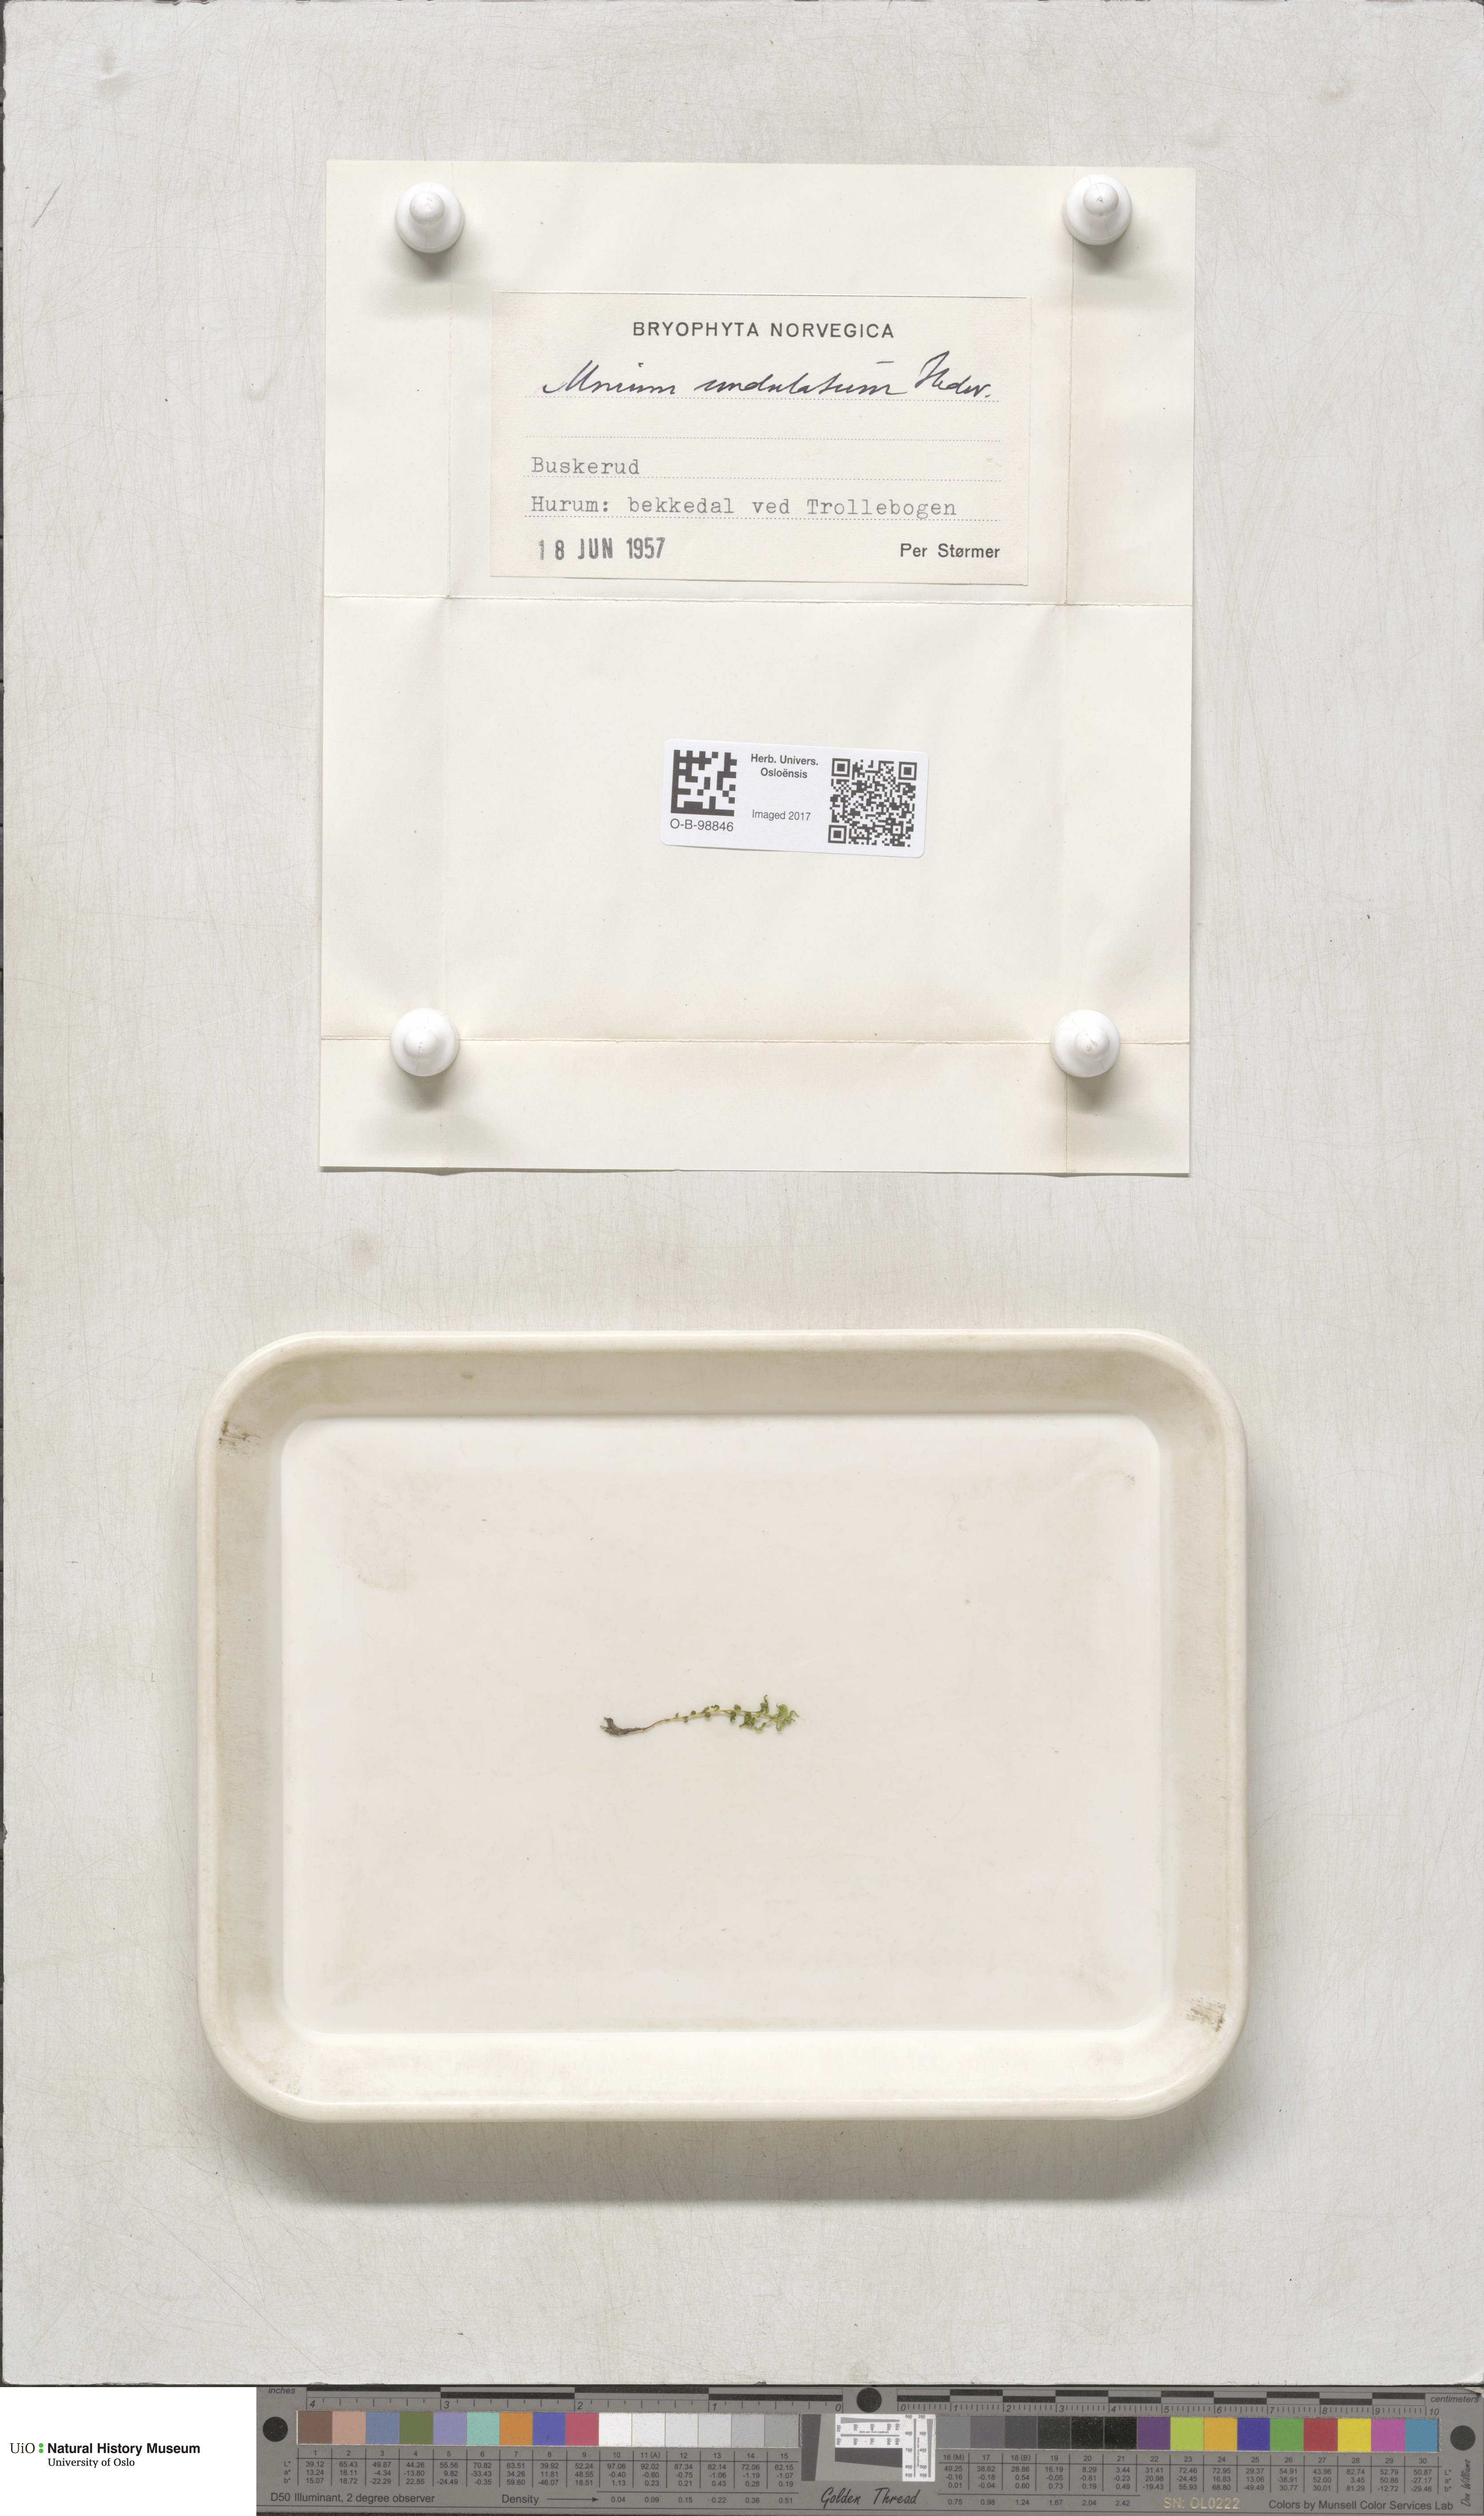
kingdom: Plantae
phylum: Bryophyta
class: Bryopsida
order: Bryales
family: Mniaceae
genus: Plagiomnium
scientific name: Plagiomnium undulatum
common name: Hart's-tongue thyme-moss
